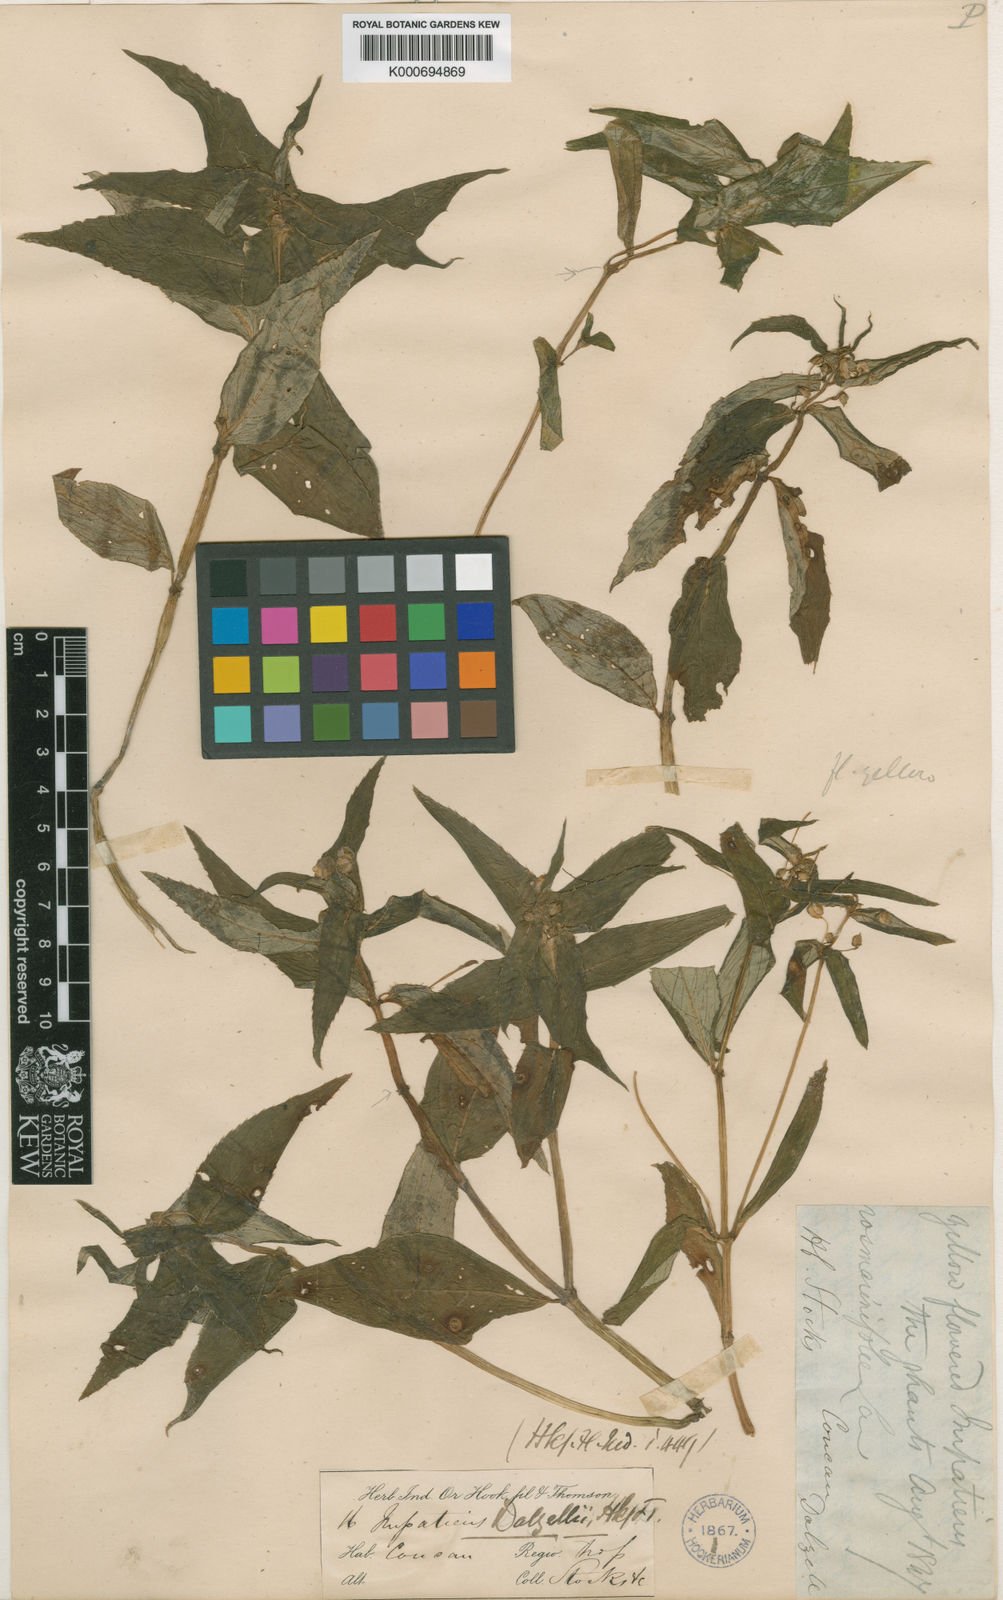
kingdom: Plantae
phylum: Tracheophyta
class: Magnoliopsida
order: Ericales
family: Balsaminaceae
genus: Impatiens
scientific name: Impatiens dalzellii
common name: Dalzell's yellow balsam
